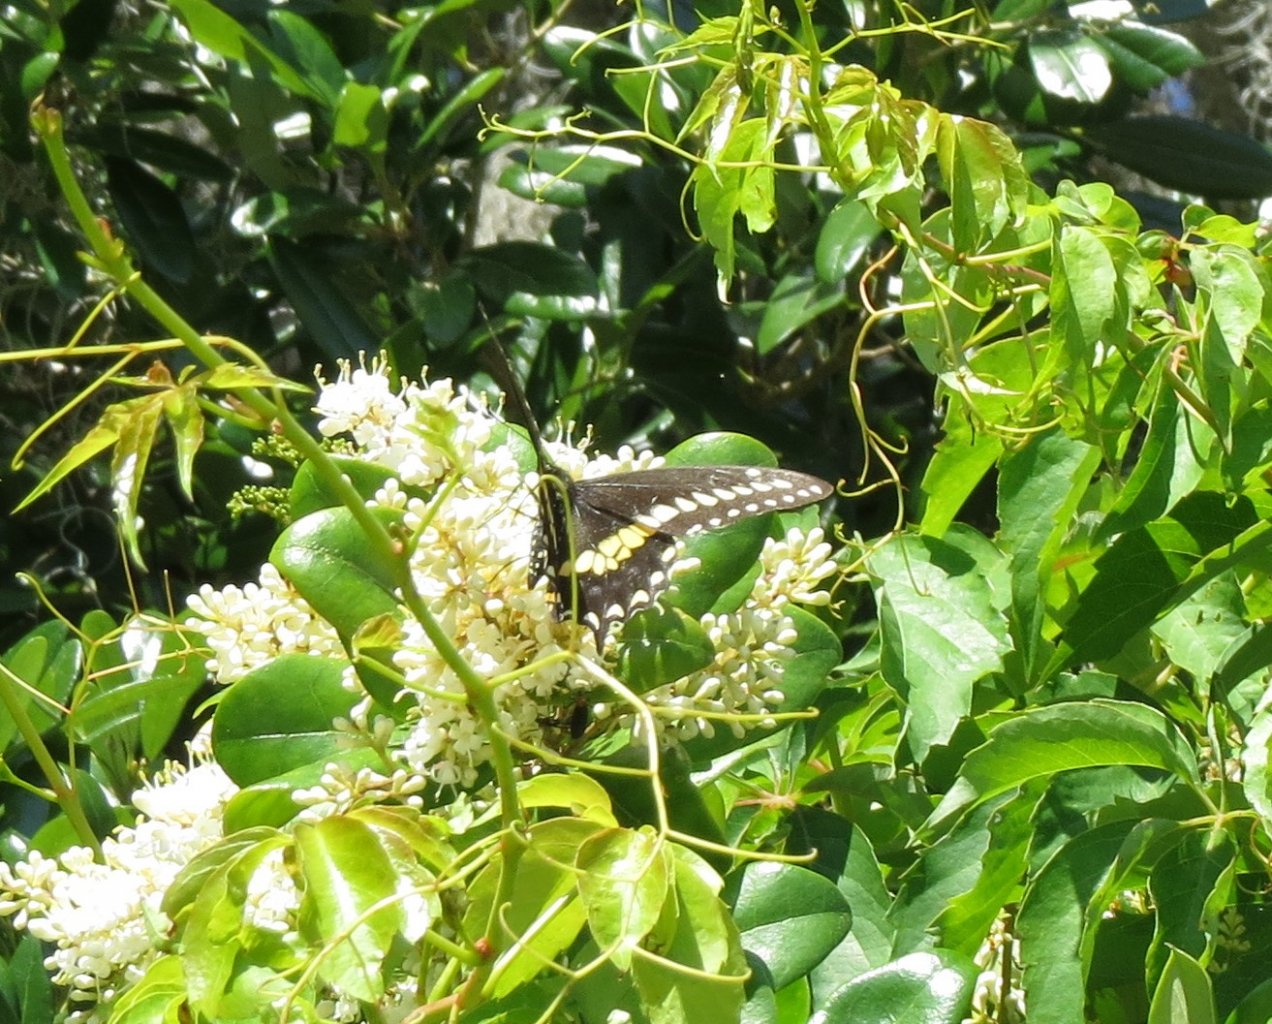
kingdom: Animalia
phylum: Arthropoda
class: Insecta
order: Lepidoptera
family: Papilionidae
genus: Papilio
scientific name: Papilio polyxenes
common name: Black Swallowtail
